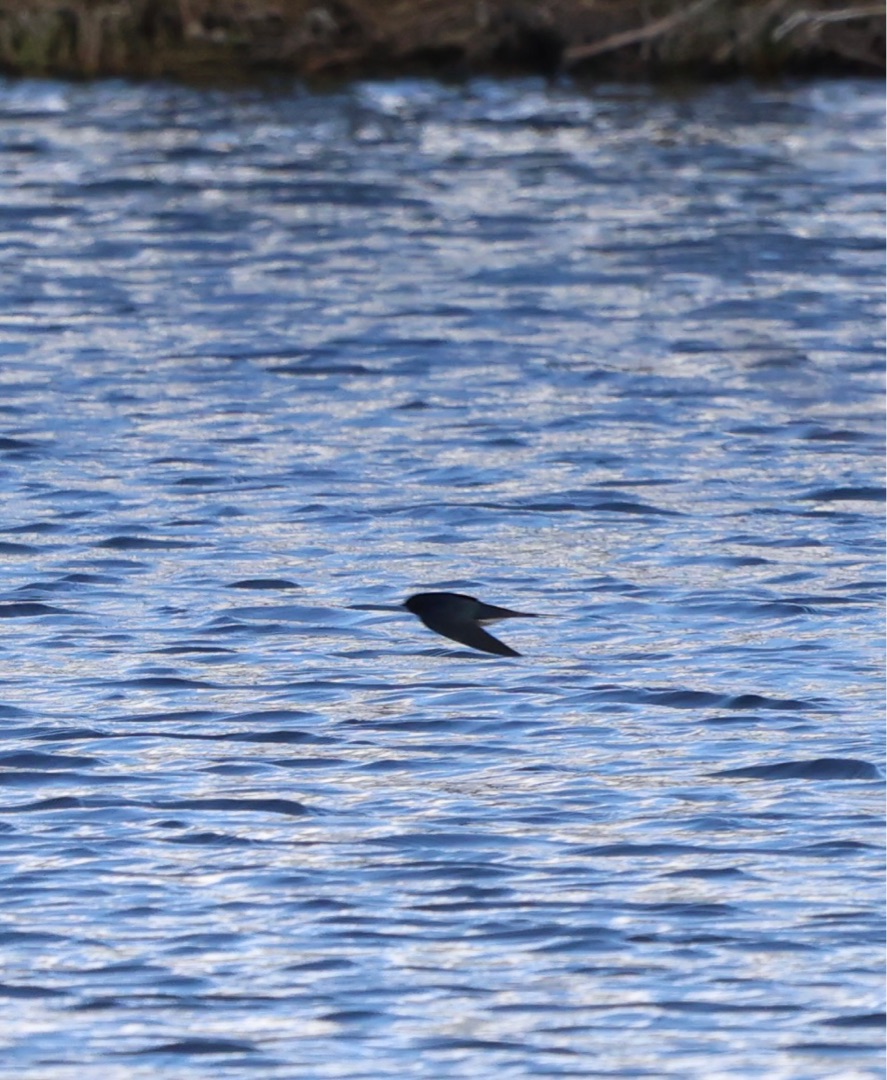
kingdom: Animalia
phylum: Chordata
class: Aves
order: Passeriformes
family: Hirundinidae
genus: Hirundo
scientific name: Hirundo rustica
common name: Landsvale
